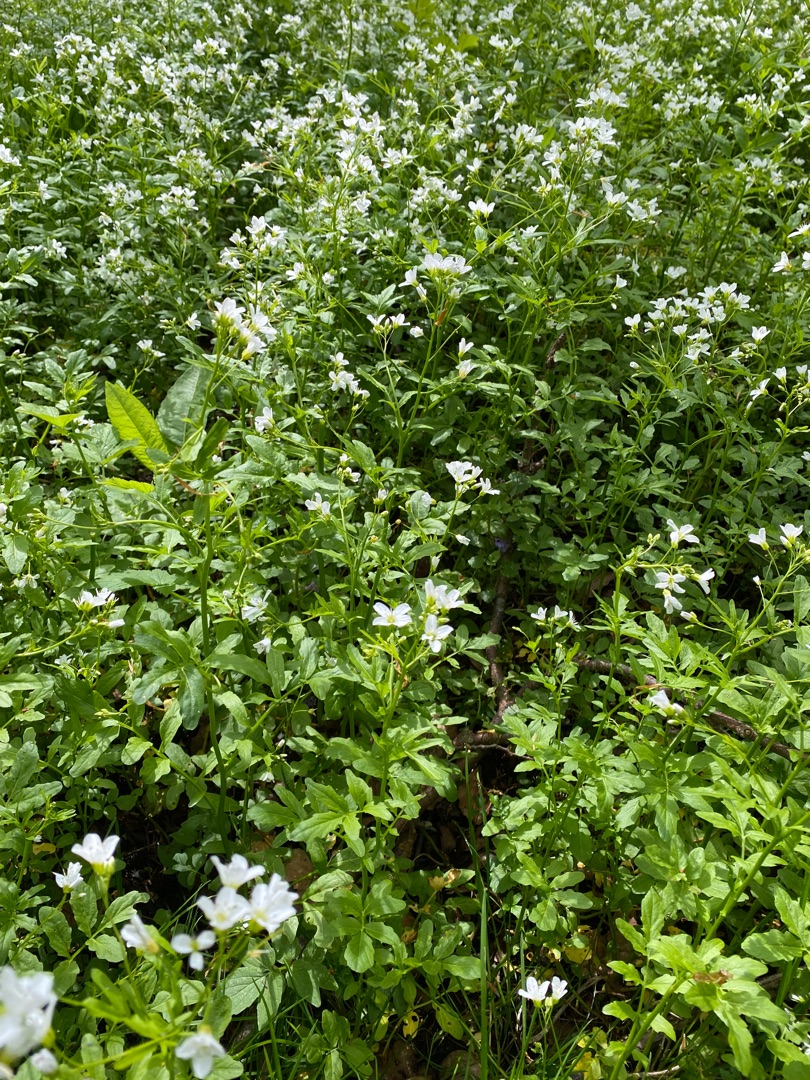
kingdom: Plantae
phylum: Tracheophyta
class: Magnoliopsida
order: Brassicales
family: Brassicaceae
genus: Cardamine
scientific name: Cardamine amara
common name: Vandkarse
